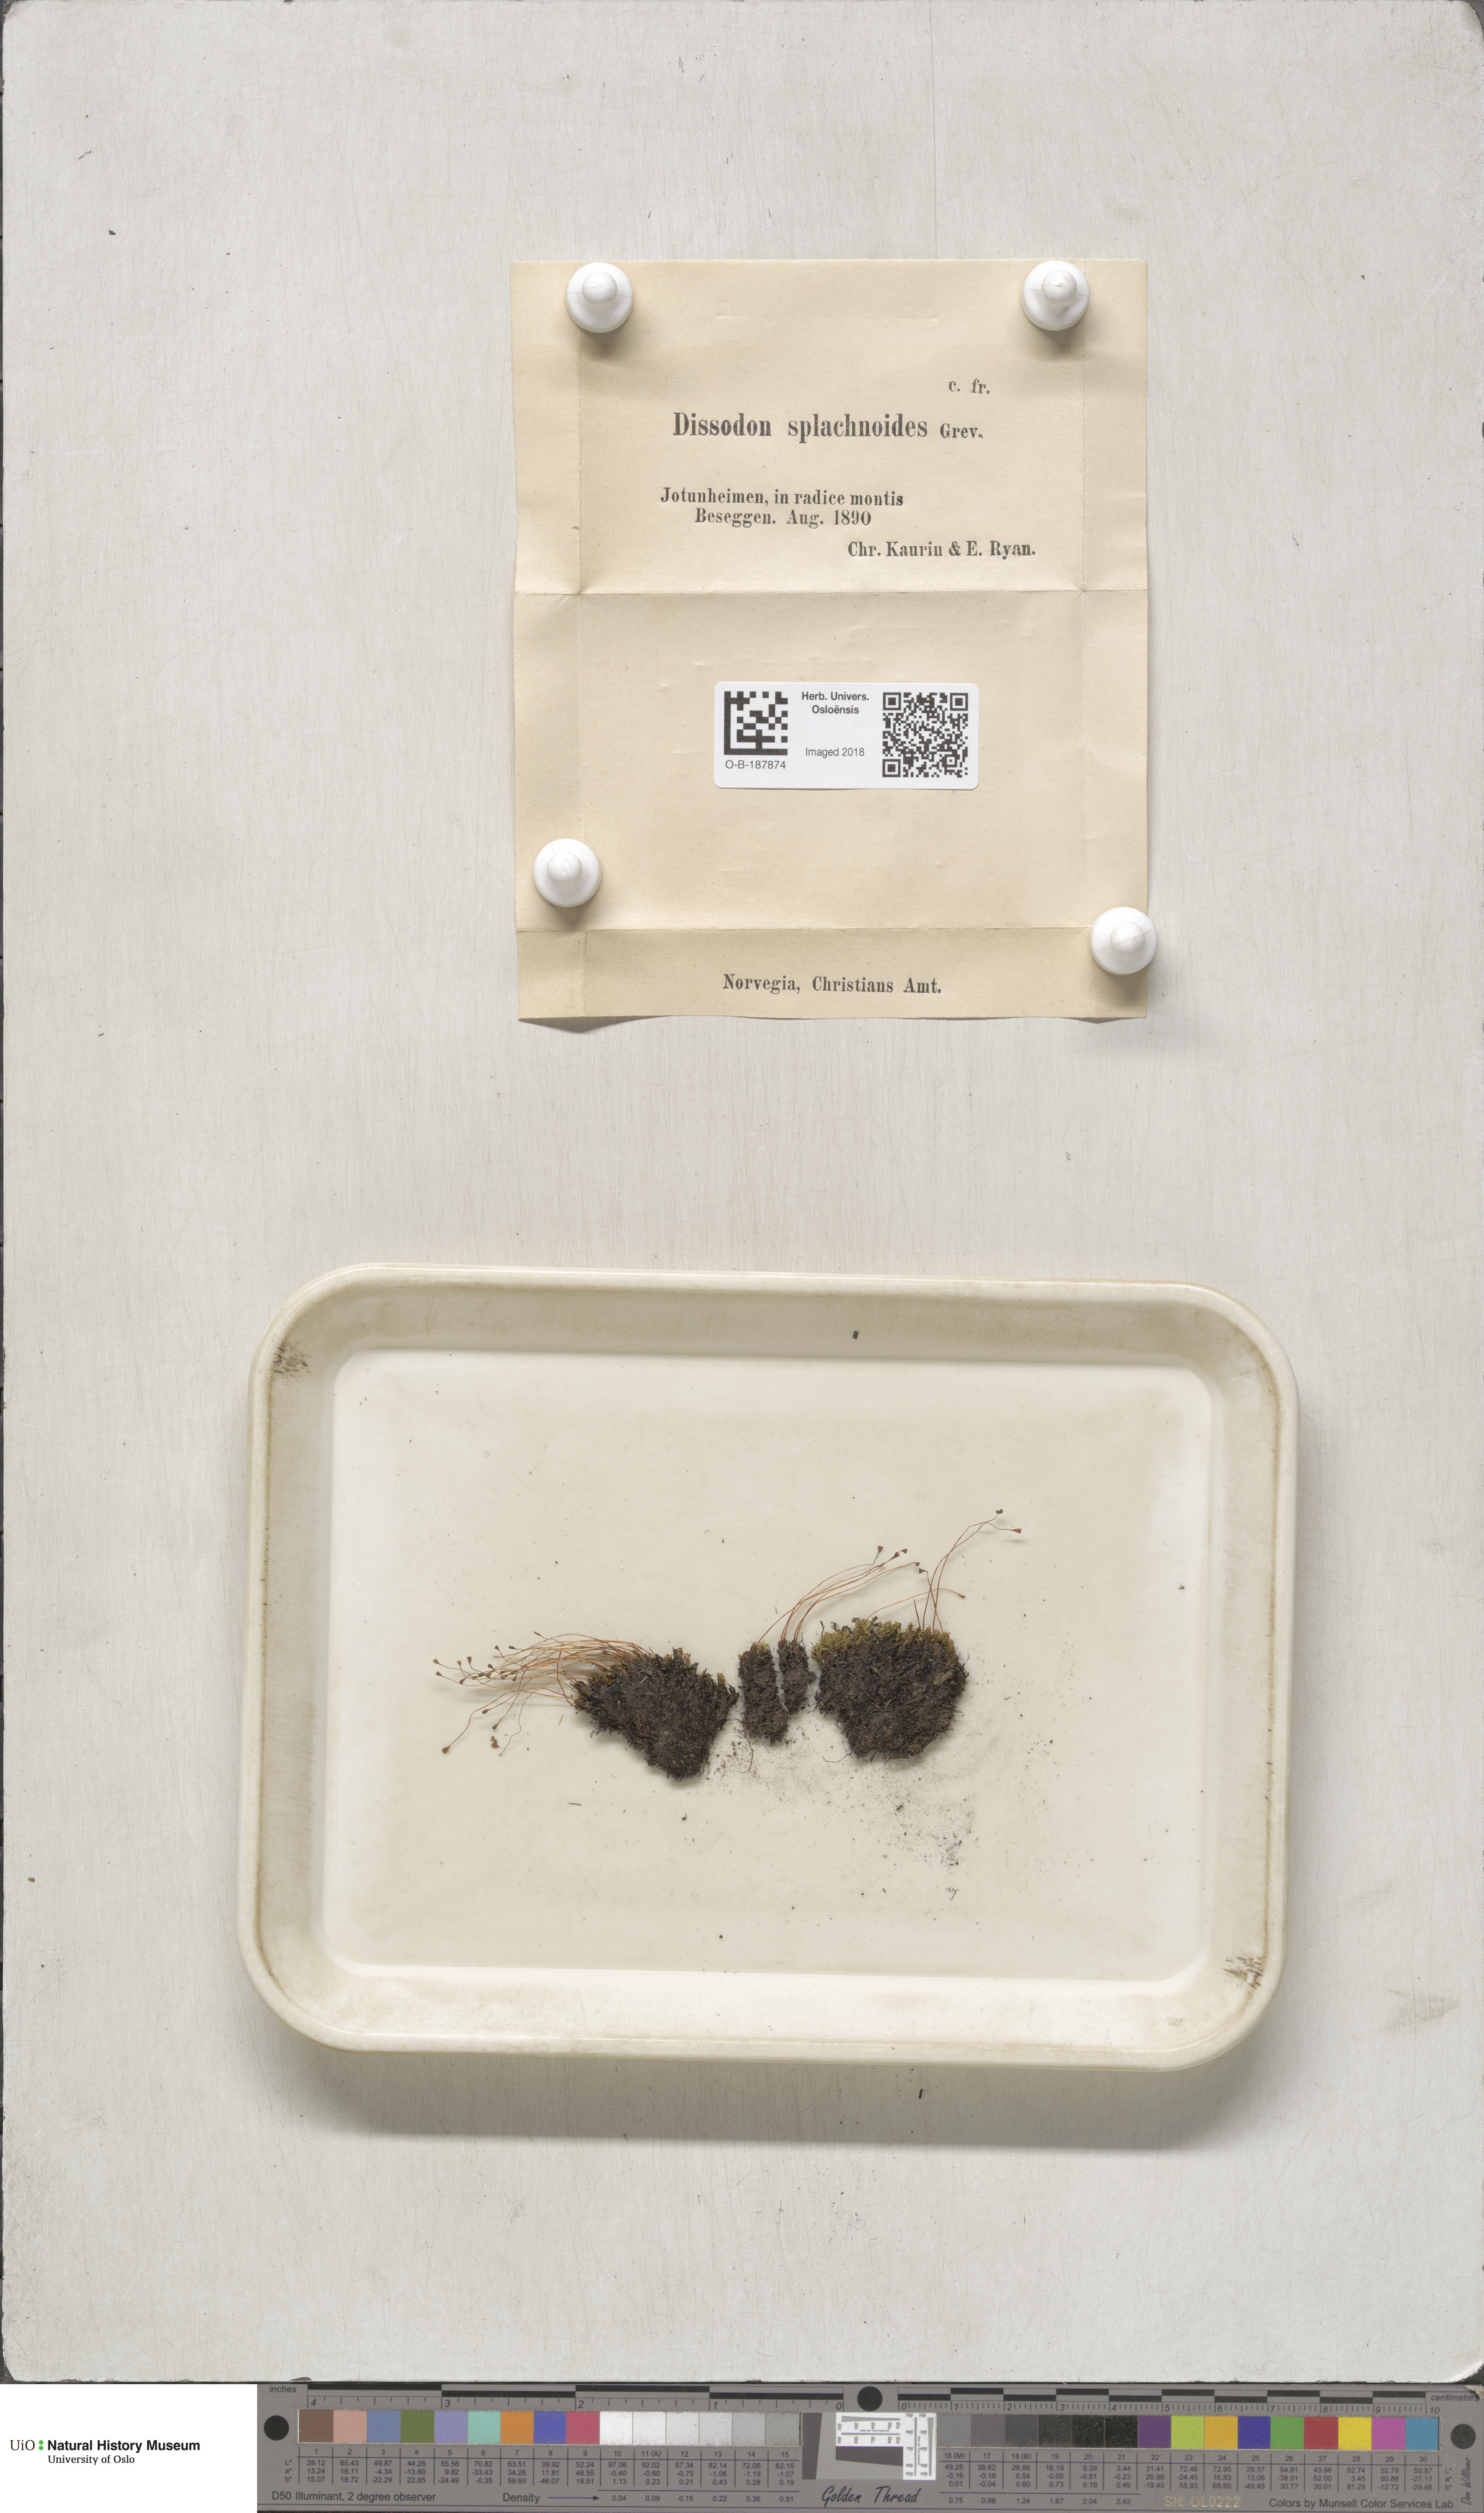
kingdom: Plantae
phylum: Bryophyta
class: Bryopsida
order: Splachnales
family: Splachnaceae
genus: Tayloria
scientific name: Tayloria lingulata
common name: Tongue-leaved trumpet moss
